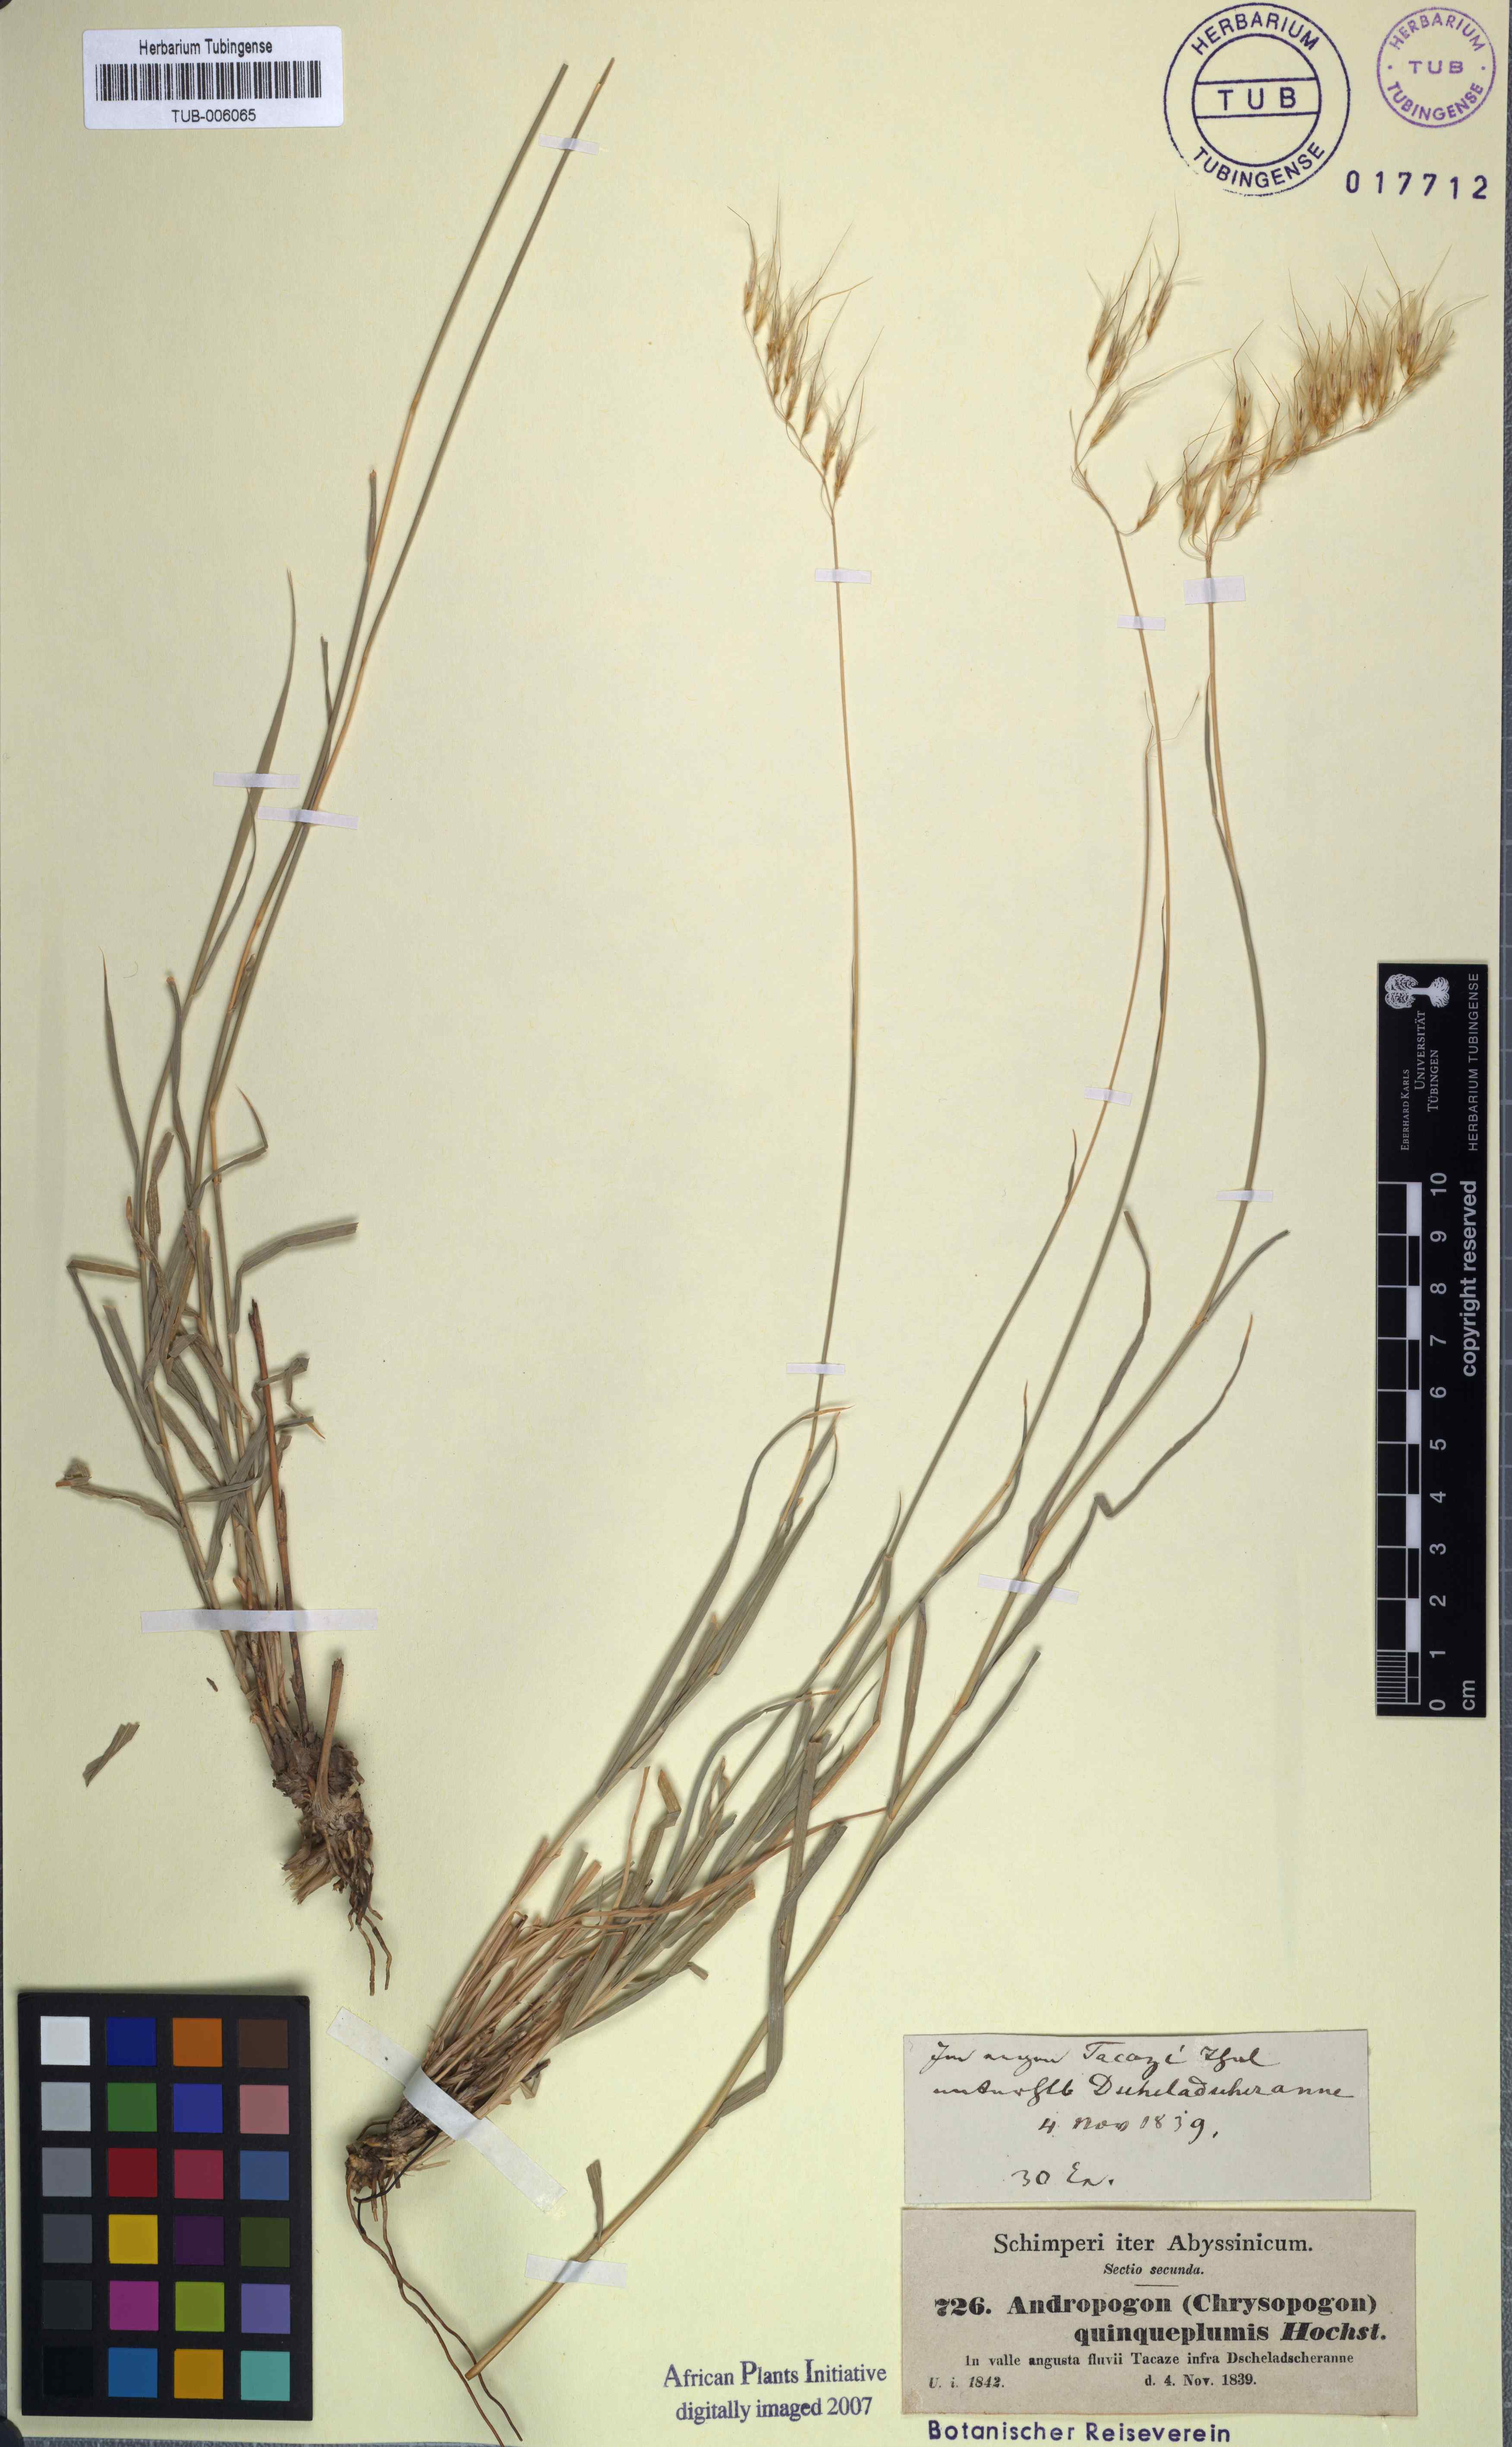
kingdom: Plantae
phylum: Tracheophyta
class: Liliopsida
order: Poales
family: Poaceae
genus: Chrysopogon
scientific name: Chrysopogon serrulatus
